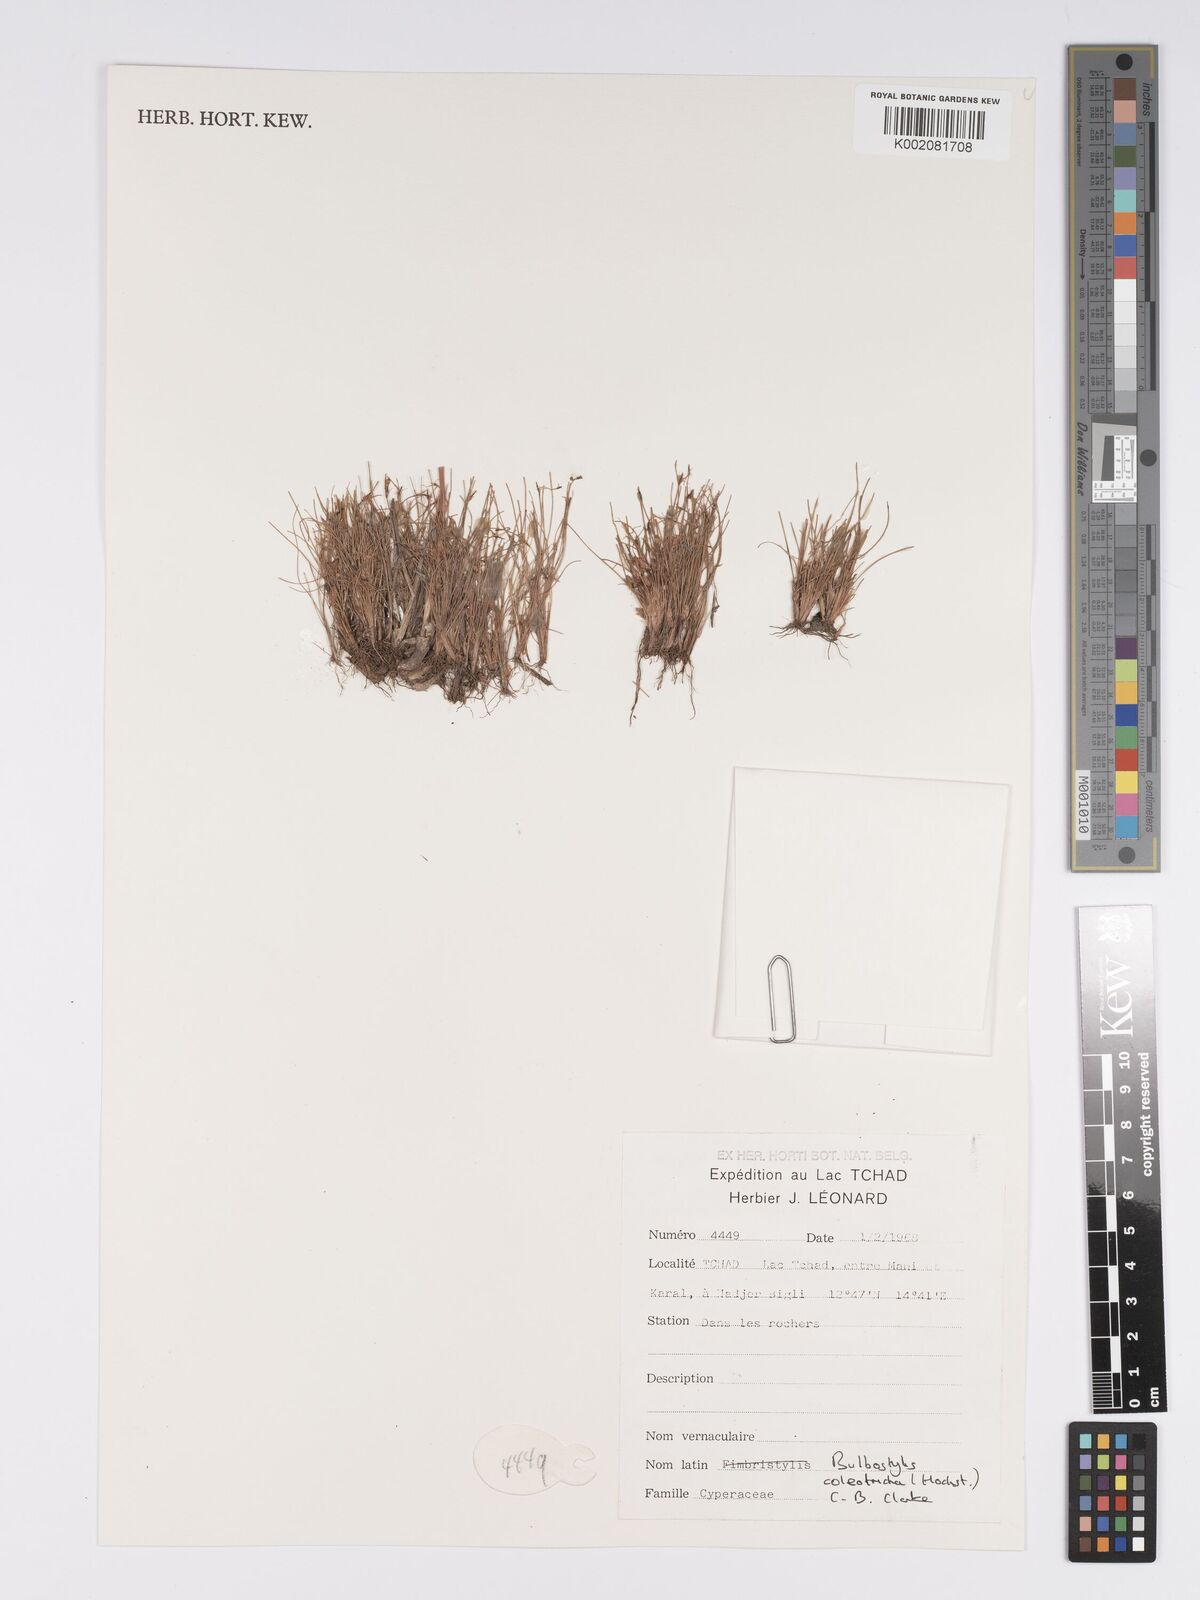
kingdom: Plantae
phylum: Tracheophyta
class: Liliopsida
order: Poales
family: Cyperaceae
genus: Bulbostylis
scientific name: Bulbostylis coleotricha
